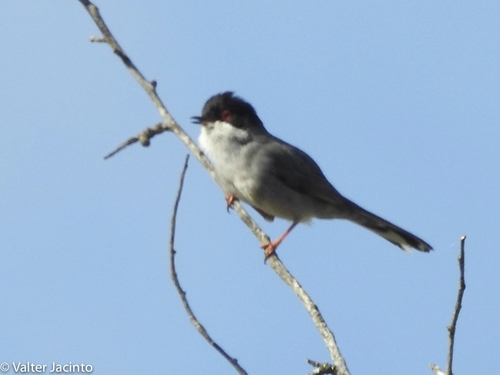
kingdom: Animalia
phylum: Chordata
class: Aves
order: Passeriformes
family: Sylviidae
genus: Sylvia
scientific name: Sylvia melanocephala
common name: Sardinian warbler
